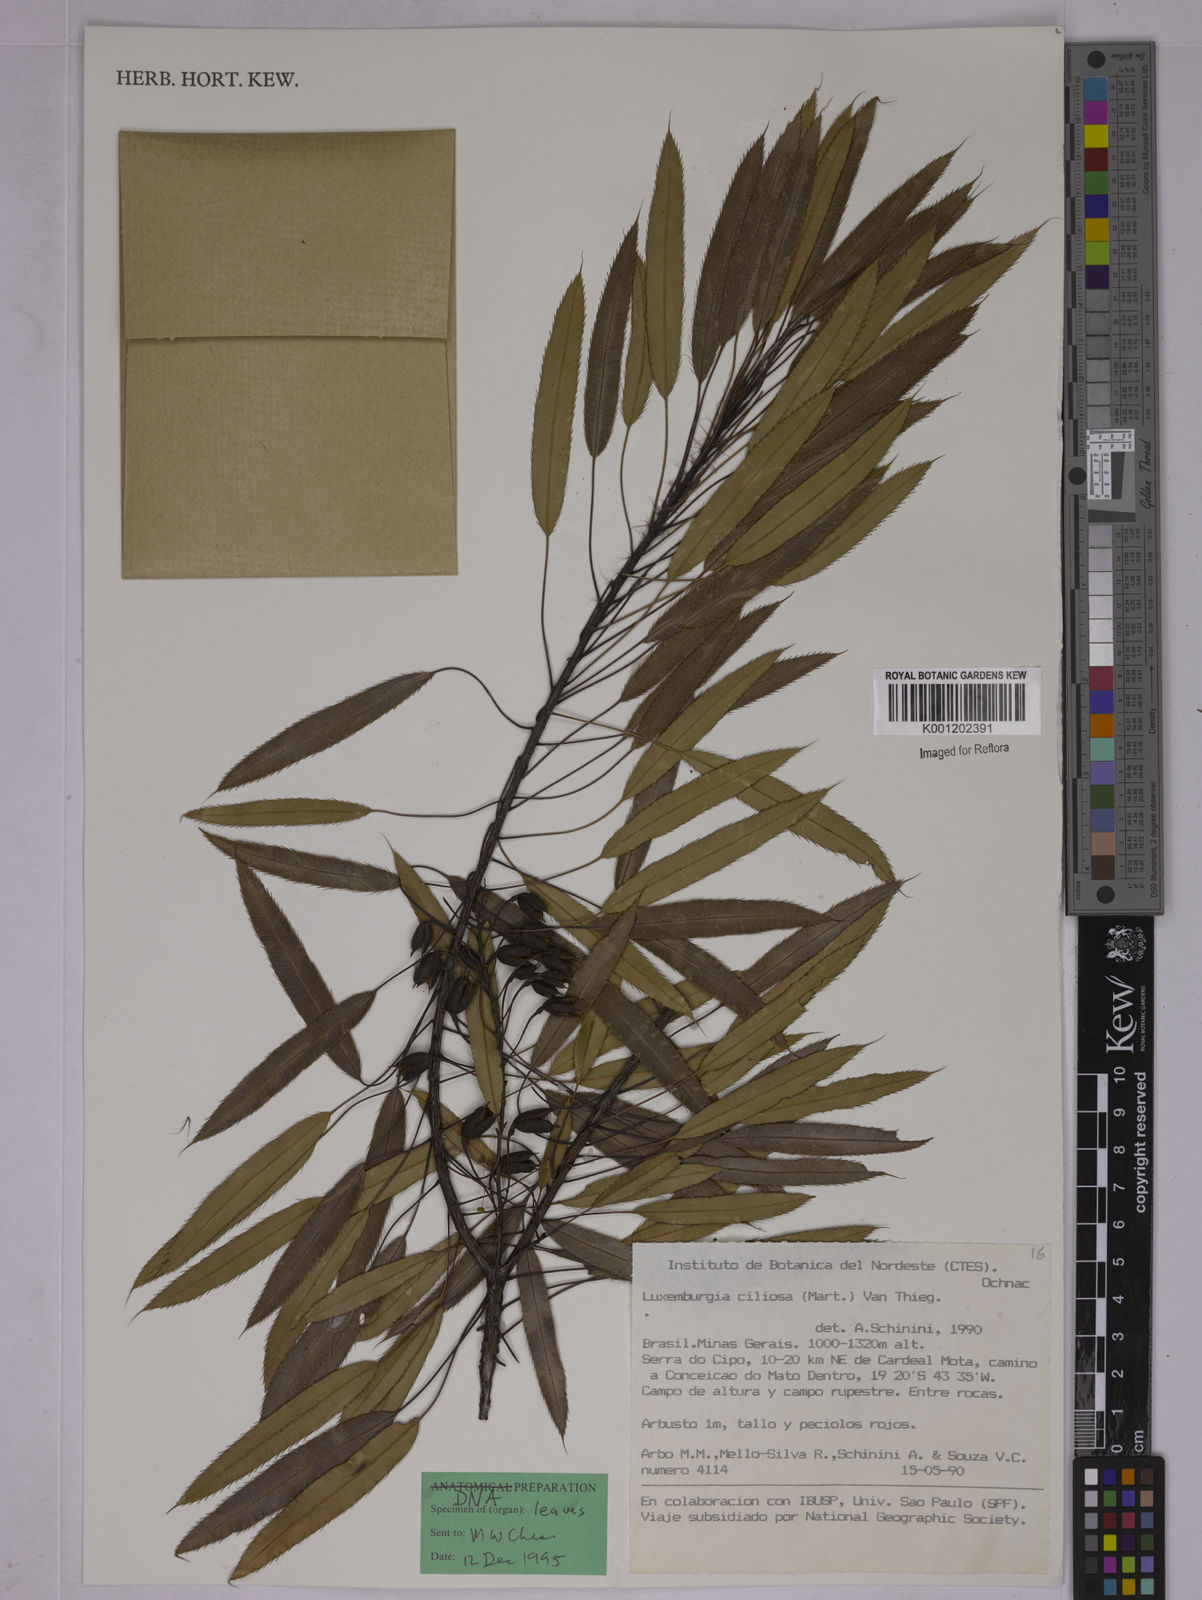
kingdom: Plantae
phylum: Tracheophyta
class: Magnoliopsida
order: Malpighiales
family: Ochnaceae
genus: Luxemburgia
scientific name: Luxemburgia ciliosa
